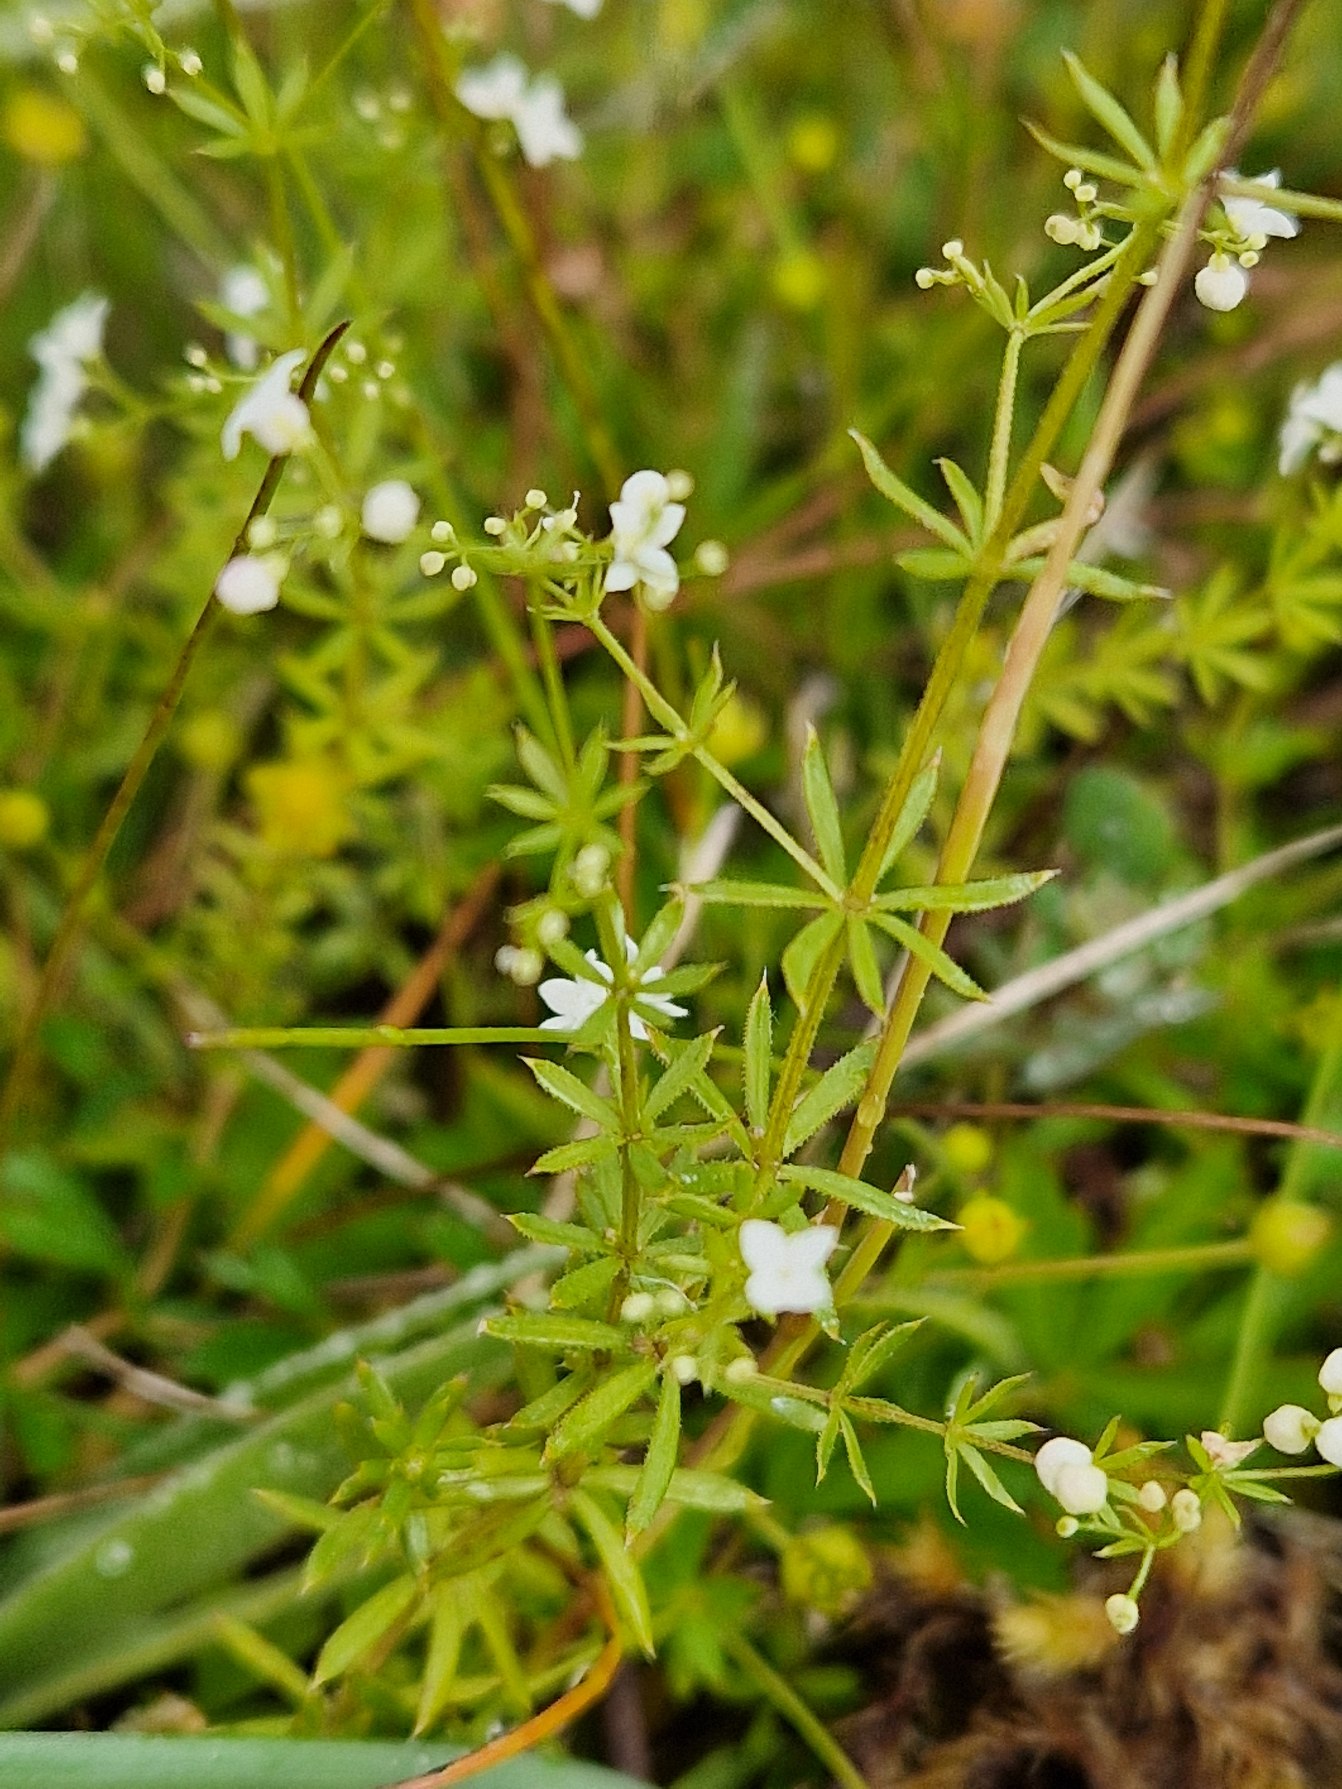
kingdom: Plantae
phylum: Tracheophyta
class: Magnoliopsida
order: Gentianales
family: Rubiaceae
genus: Galium
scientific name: Galium uliginosum
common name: Sump-snerre
